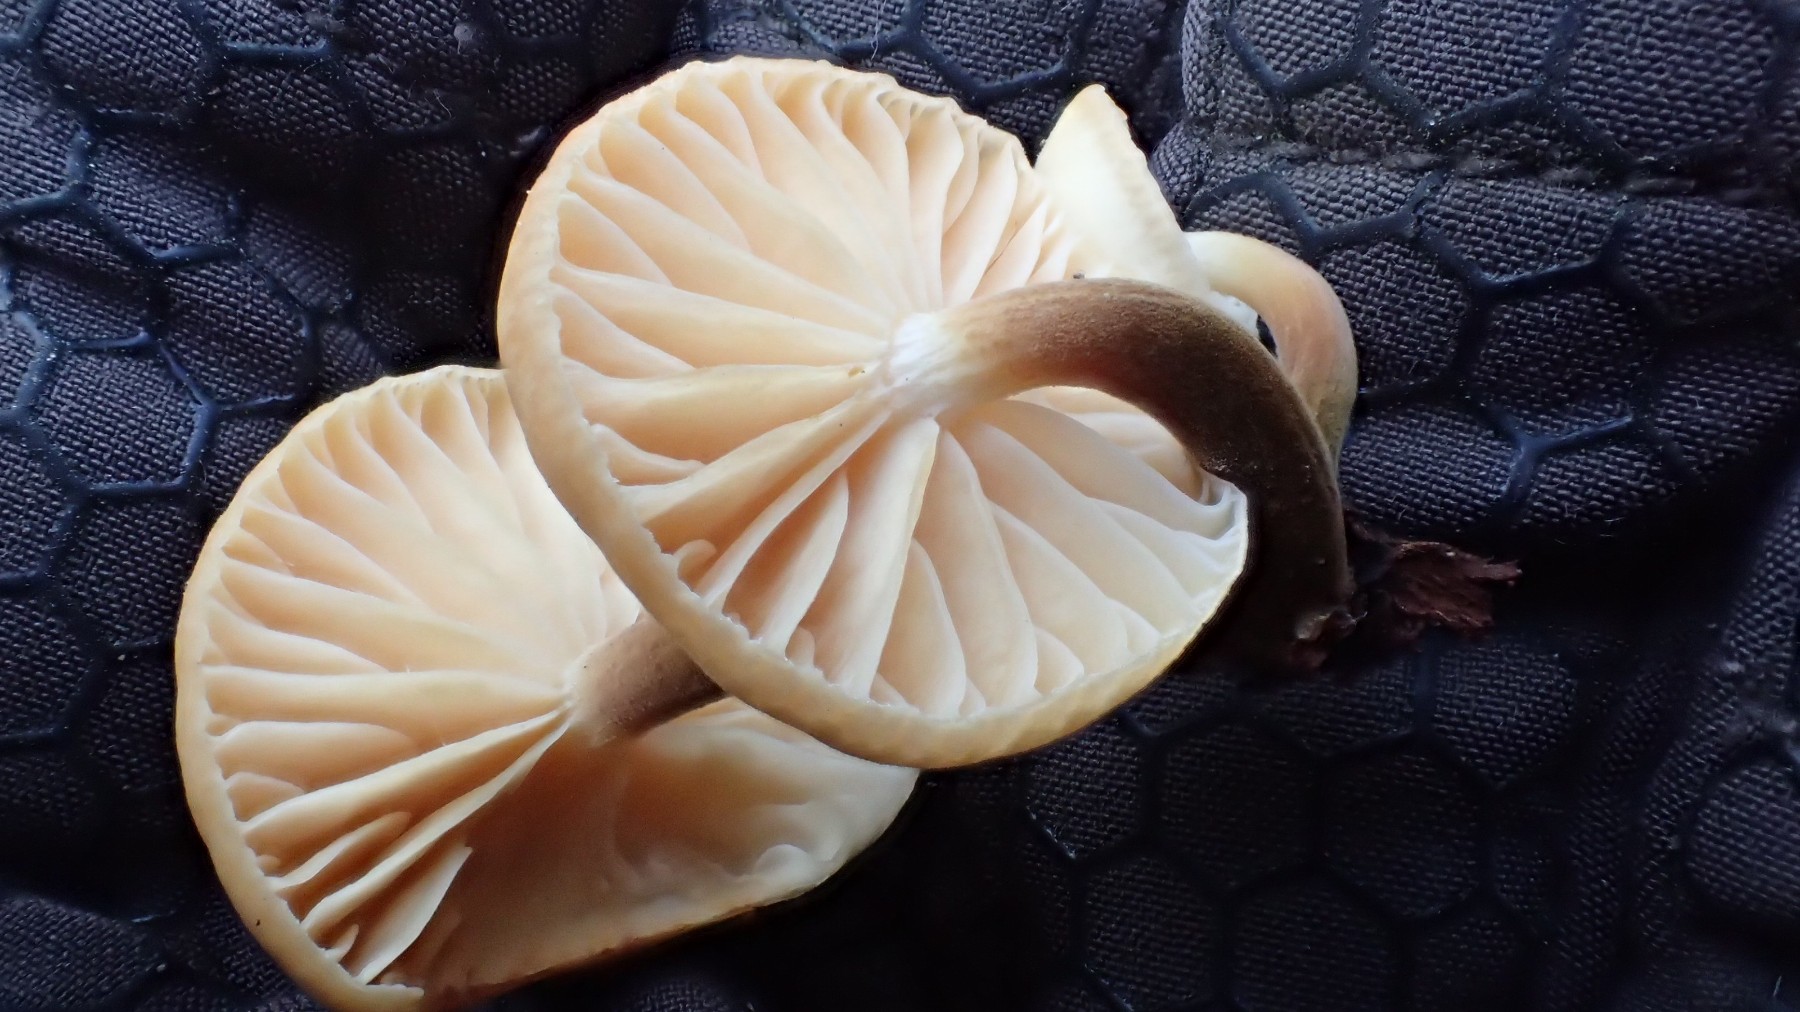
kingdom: Fungi
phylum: Basidiomycota
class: Agaricomycetes
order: Agaricales
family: Physalacriaceae
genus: Flammulina
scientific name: Flammulina elastica
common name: pile-fløjlsfod
